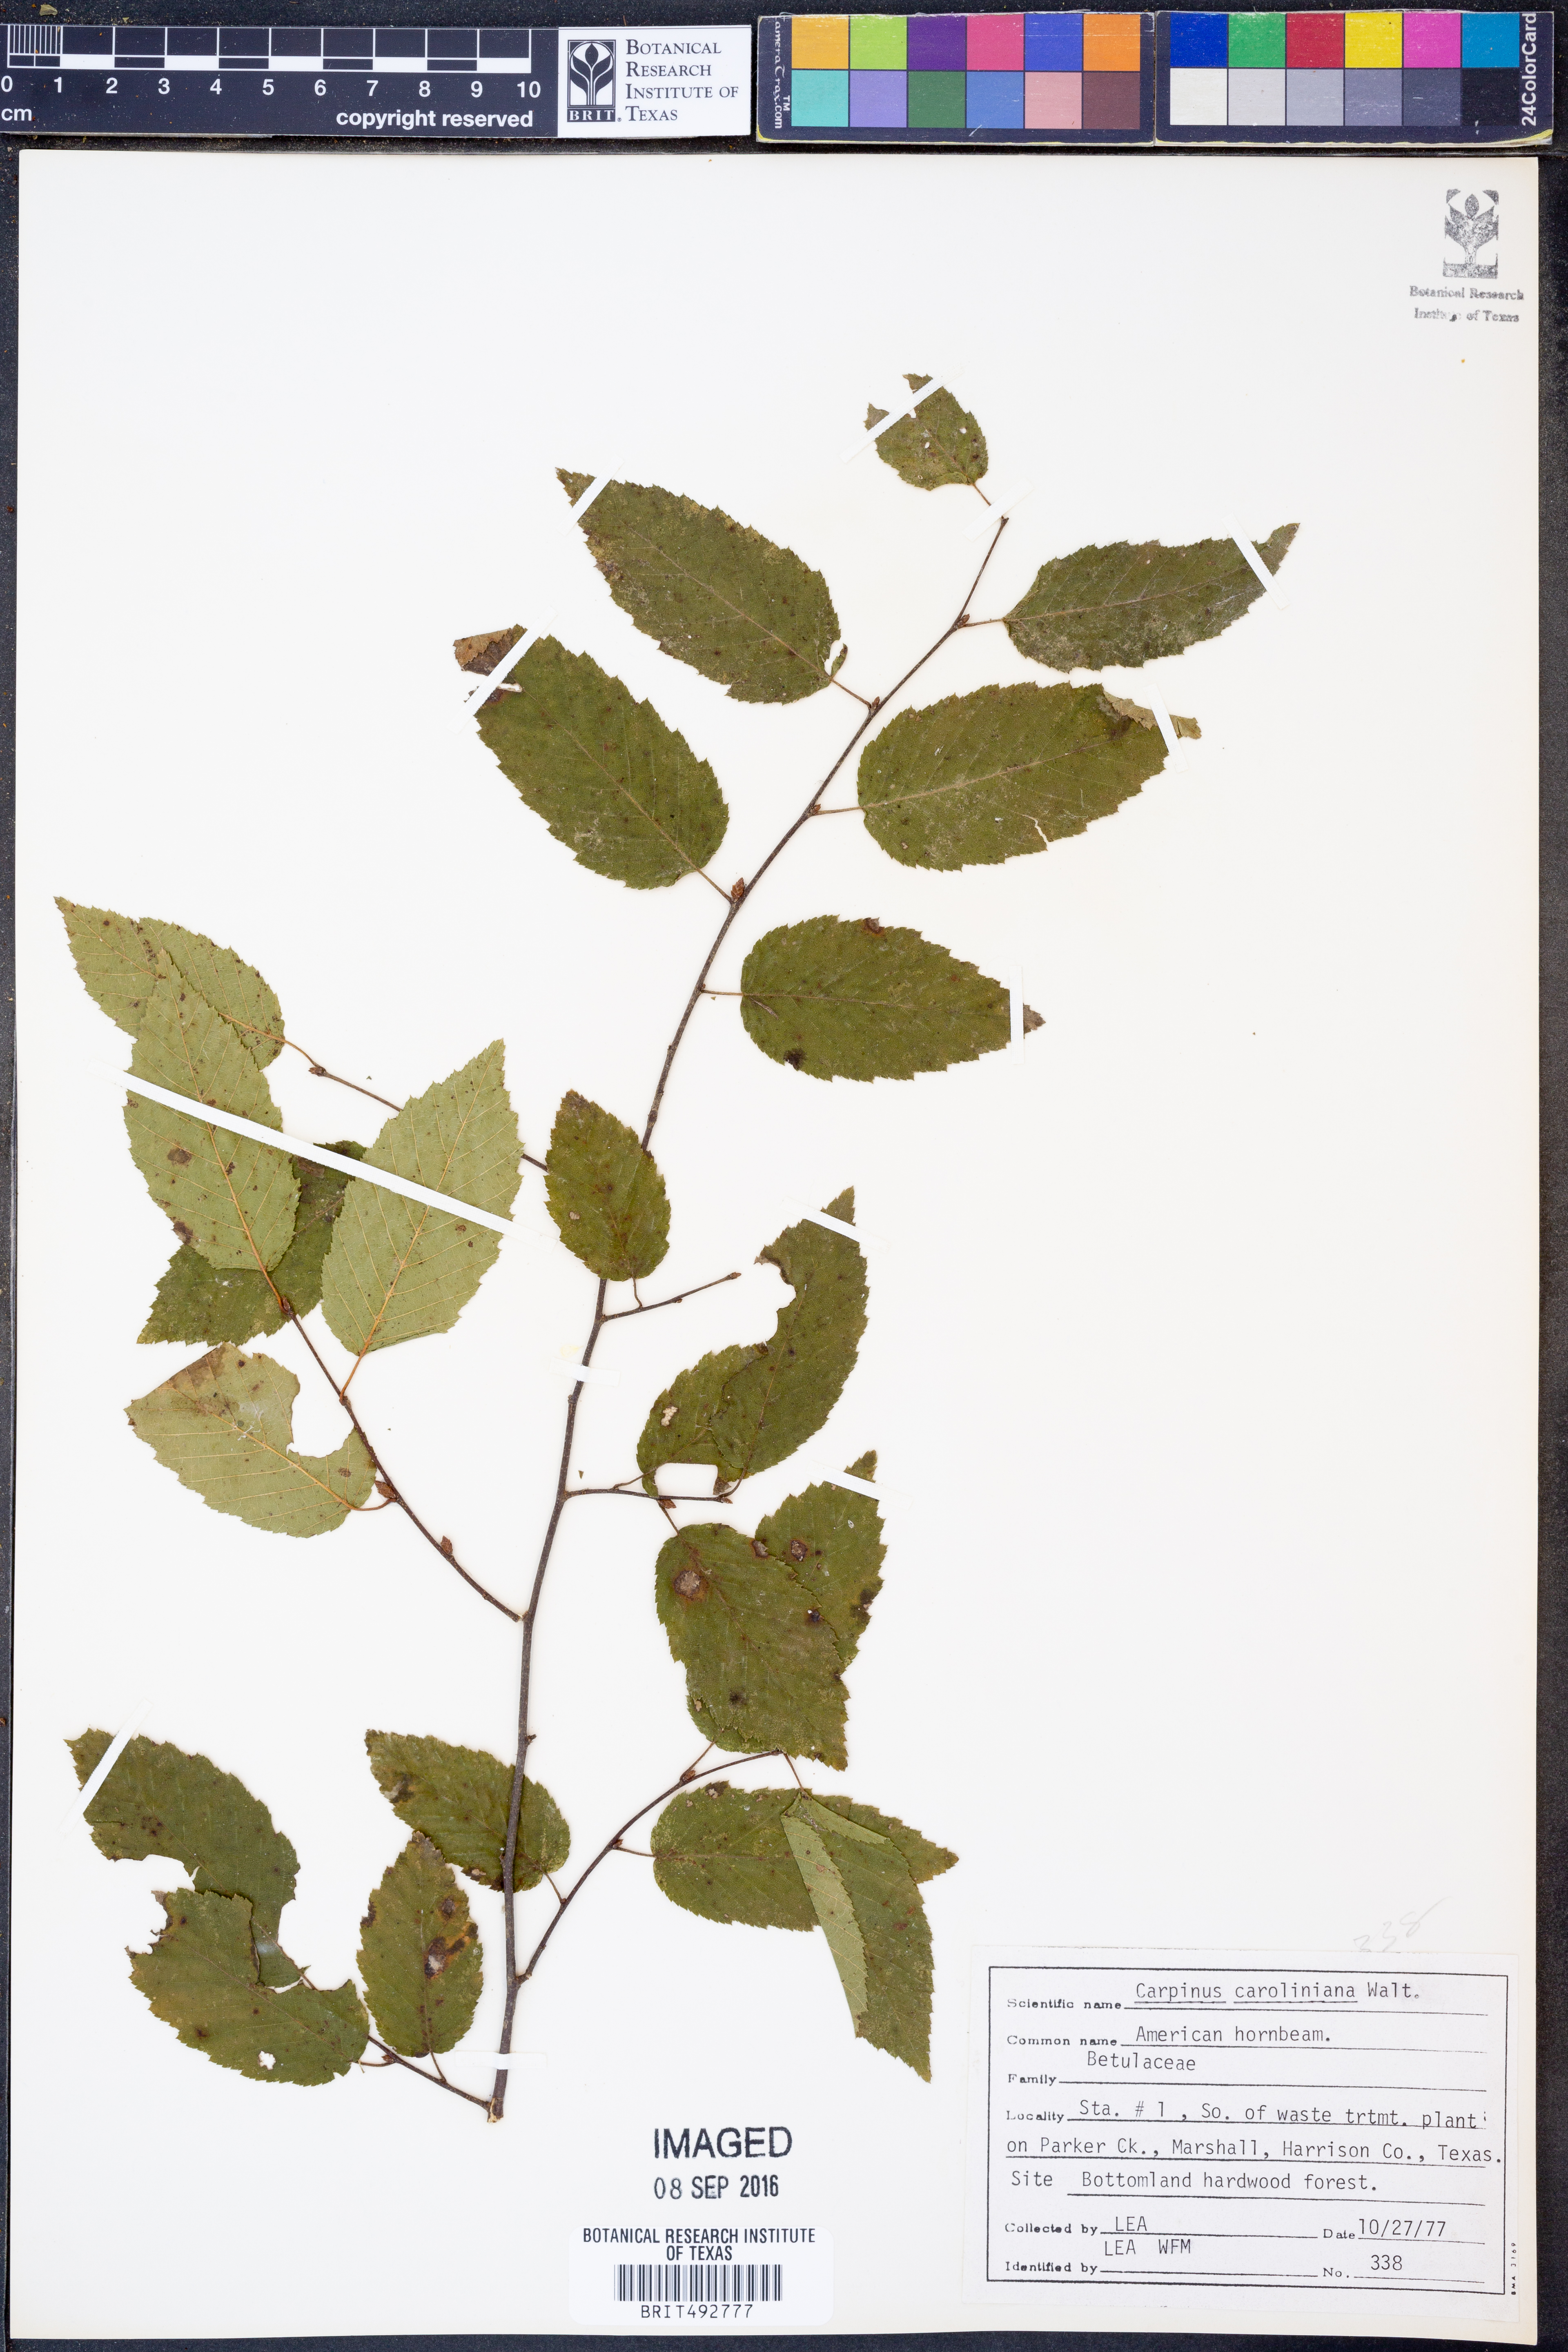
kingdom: Plantae
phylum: Tracheophyta
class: Magnoliopsida
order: Fagales
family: Betulaceae
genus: Carpinus
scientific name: Carpinus caroliniana
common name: American hornbeam
